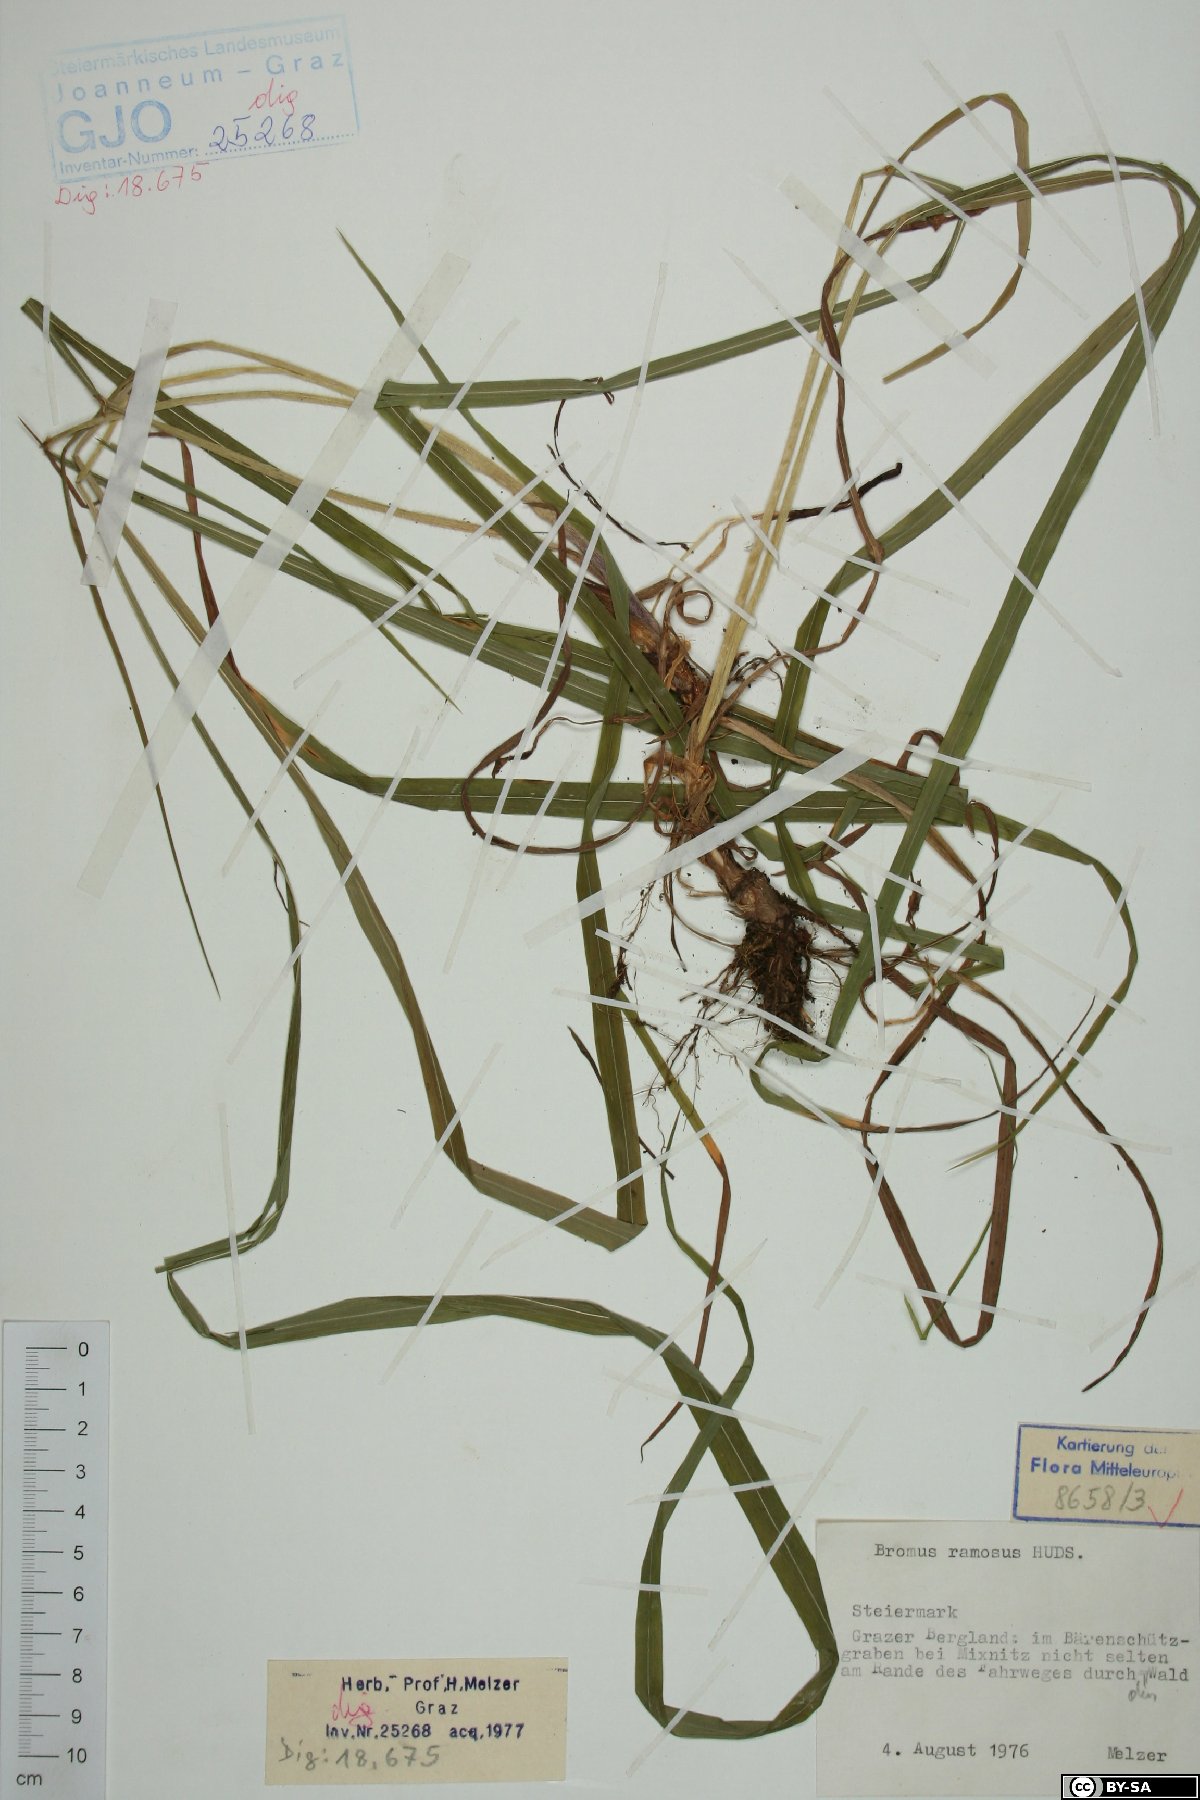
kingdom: Plantae
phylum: Tracheophyta
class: Liliopsida
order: Poales
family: Poaceae
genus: Bromus
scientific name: Bromus ramosus
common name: Hairy brome
